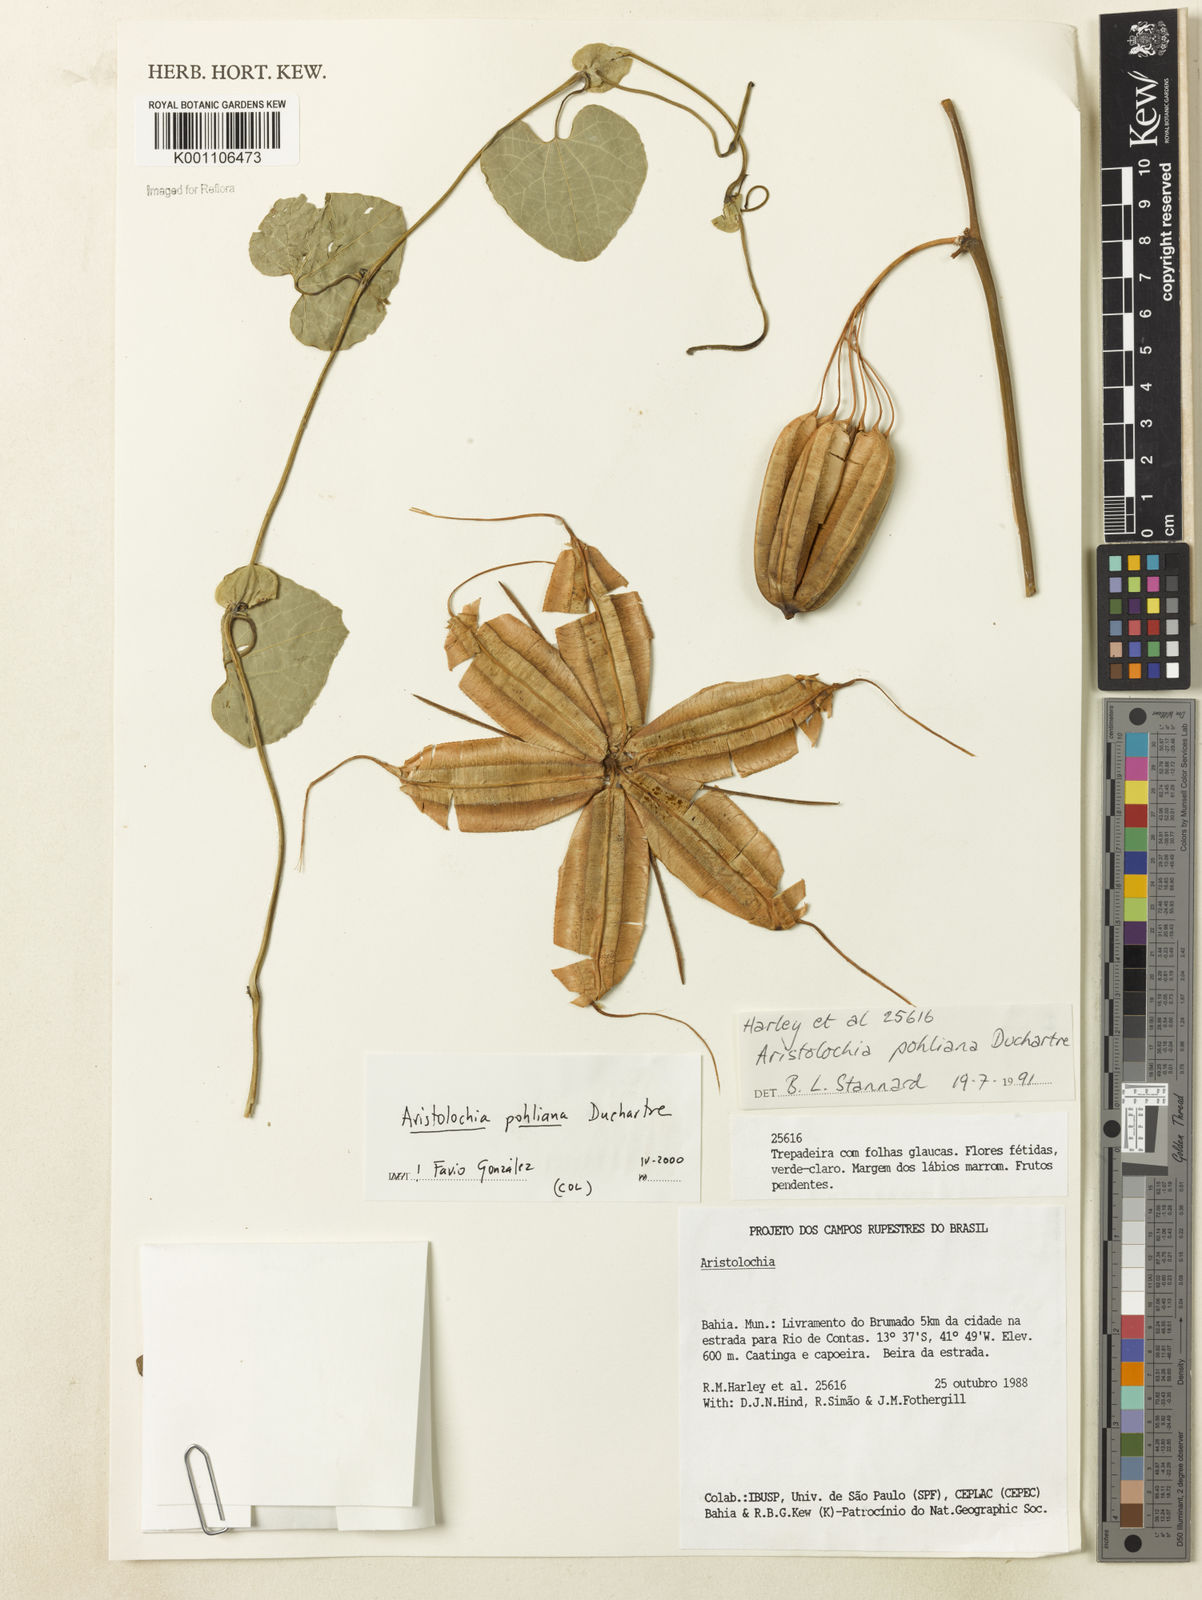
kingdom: Plantae
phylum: Tracheophyta
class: Magnoliopsida
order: Piperales
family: Aristolochiaceae
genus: Aristolochia
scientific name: Aristolochia pohliana
